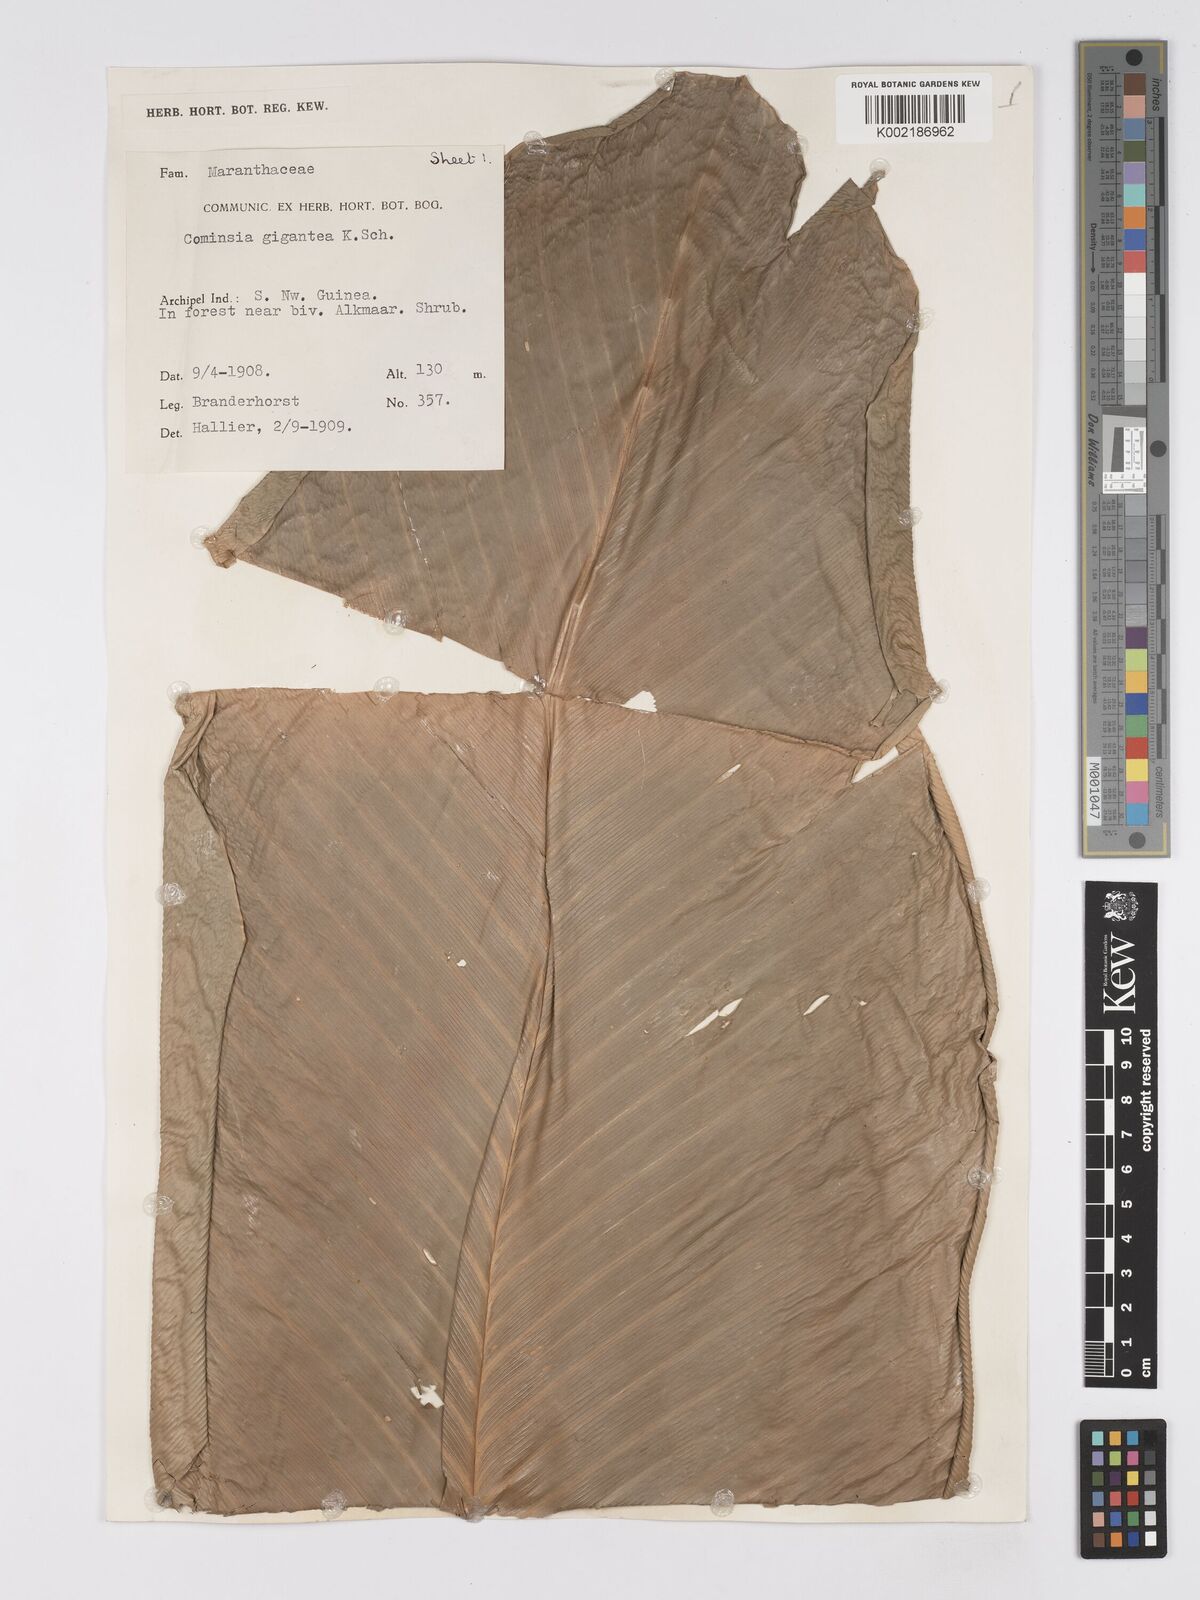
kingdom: Plantae
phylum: Tracheophyta
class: Liliopsida
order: Zingiberales
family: Marantaceae
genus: Phrynium
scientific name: Phrynium giganteum
